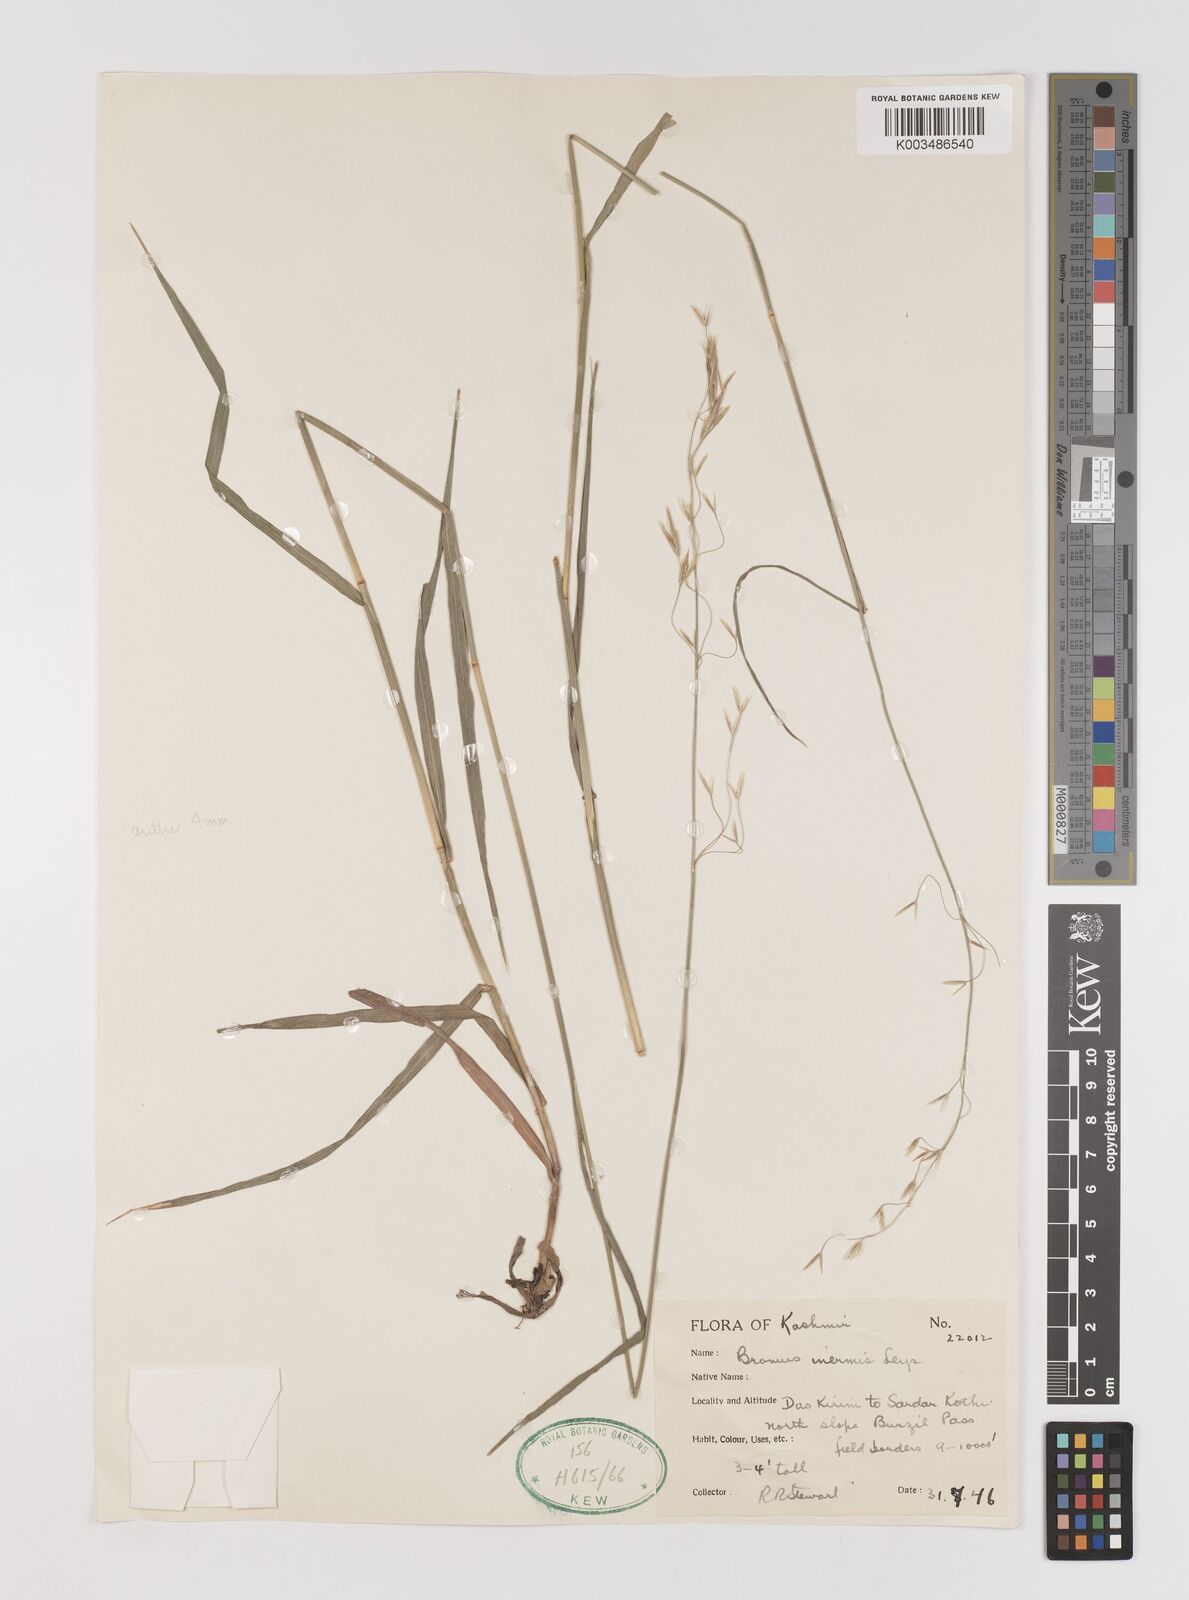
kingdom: Plantae
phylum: Tracheophyta
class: Liliopsida
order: Poales
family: Poaceae
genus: Bromus
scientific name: Bromus inermis
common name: Smooth brome
